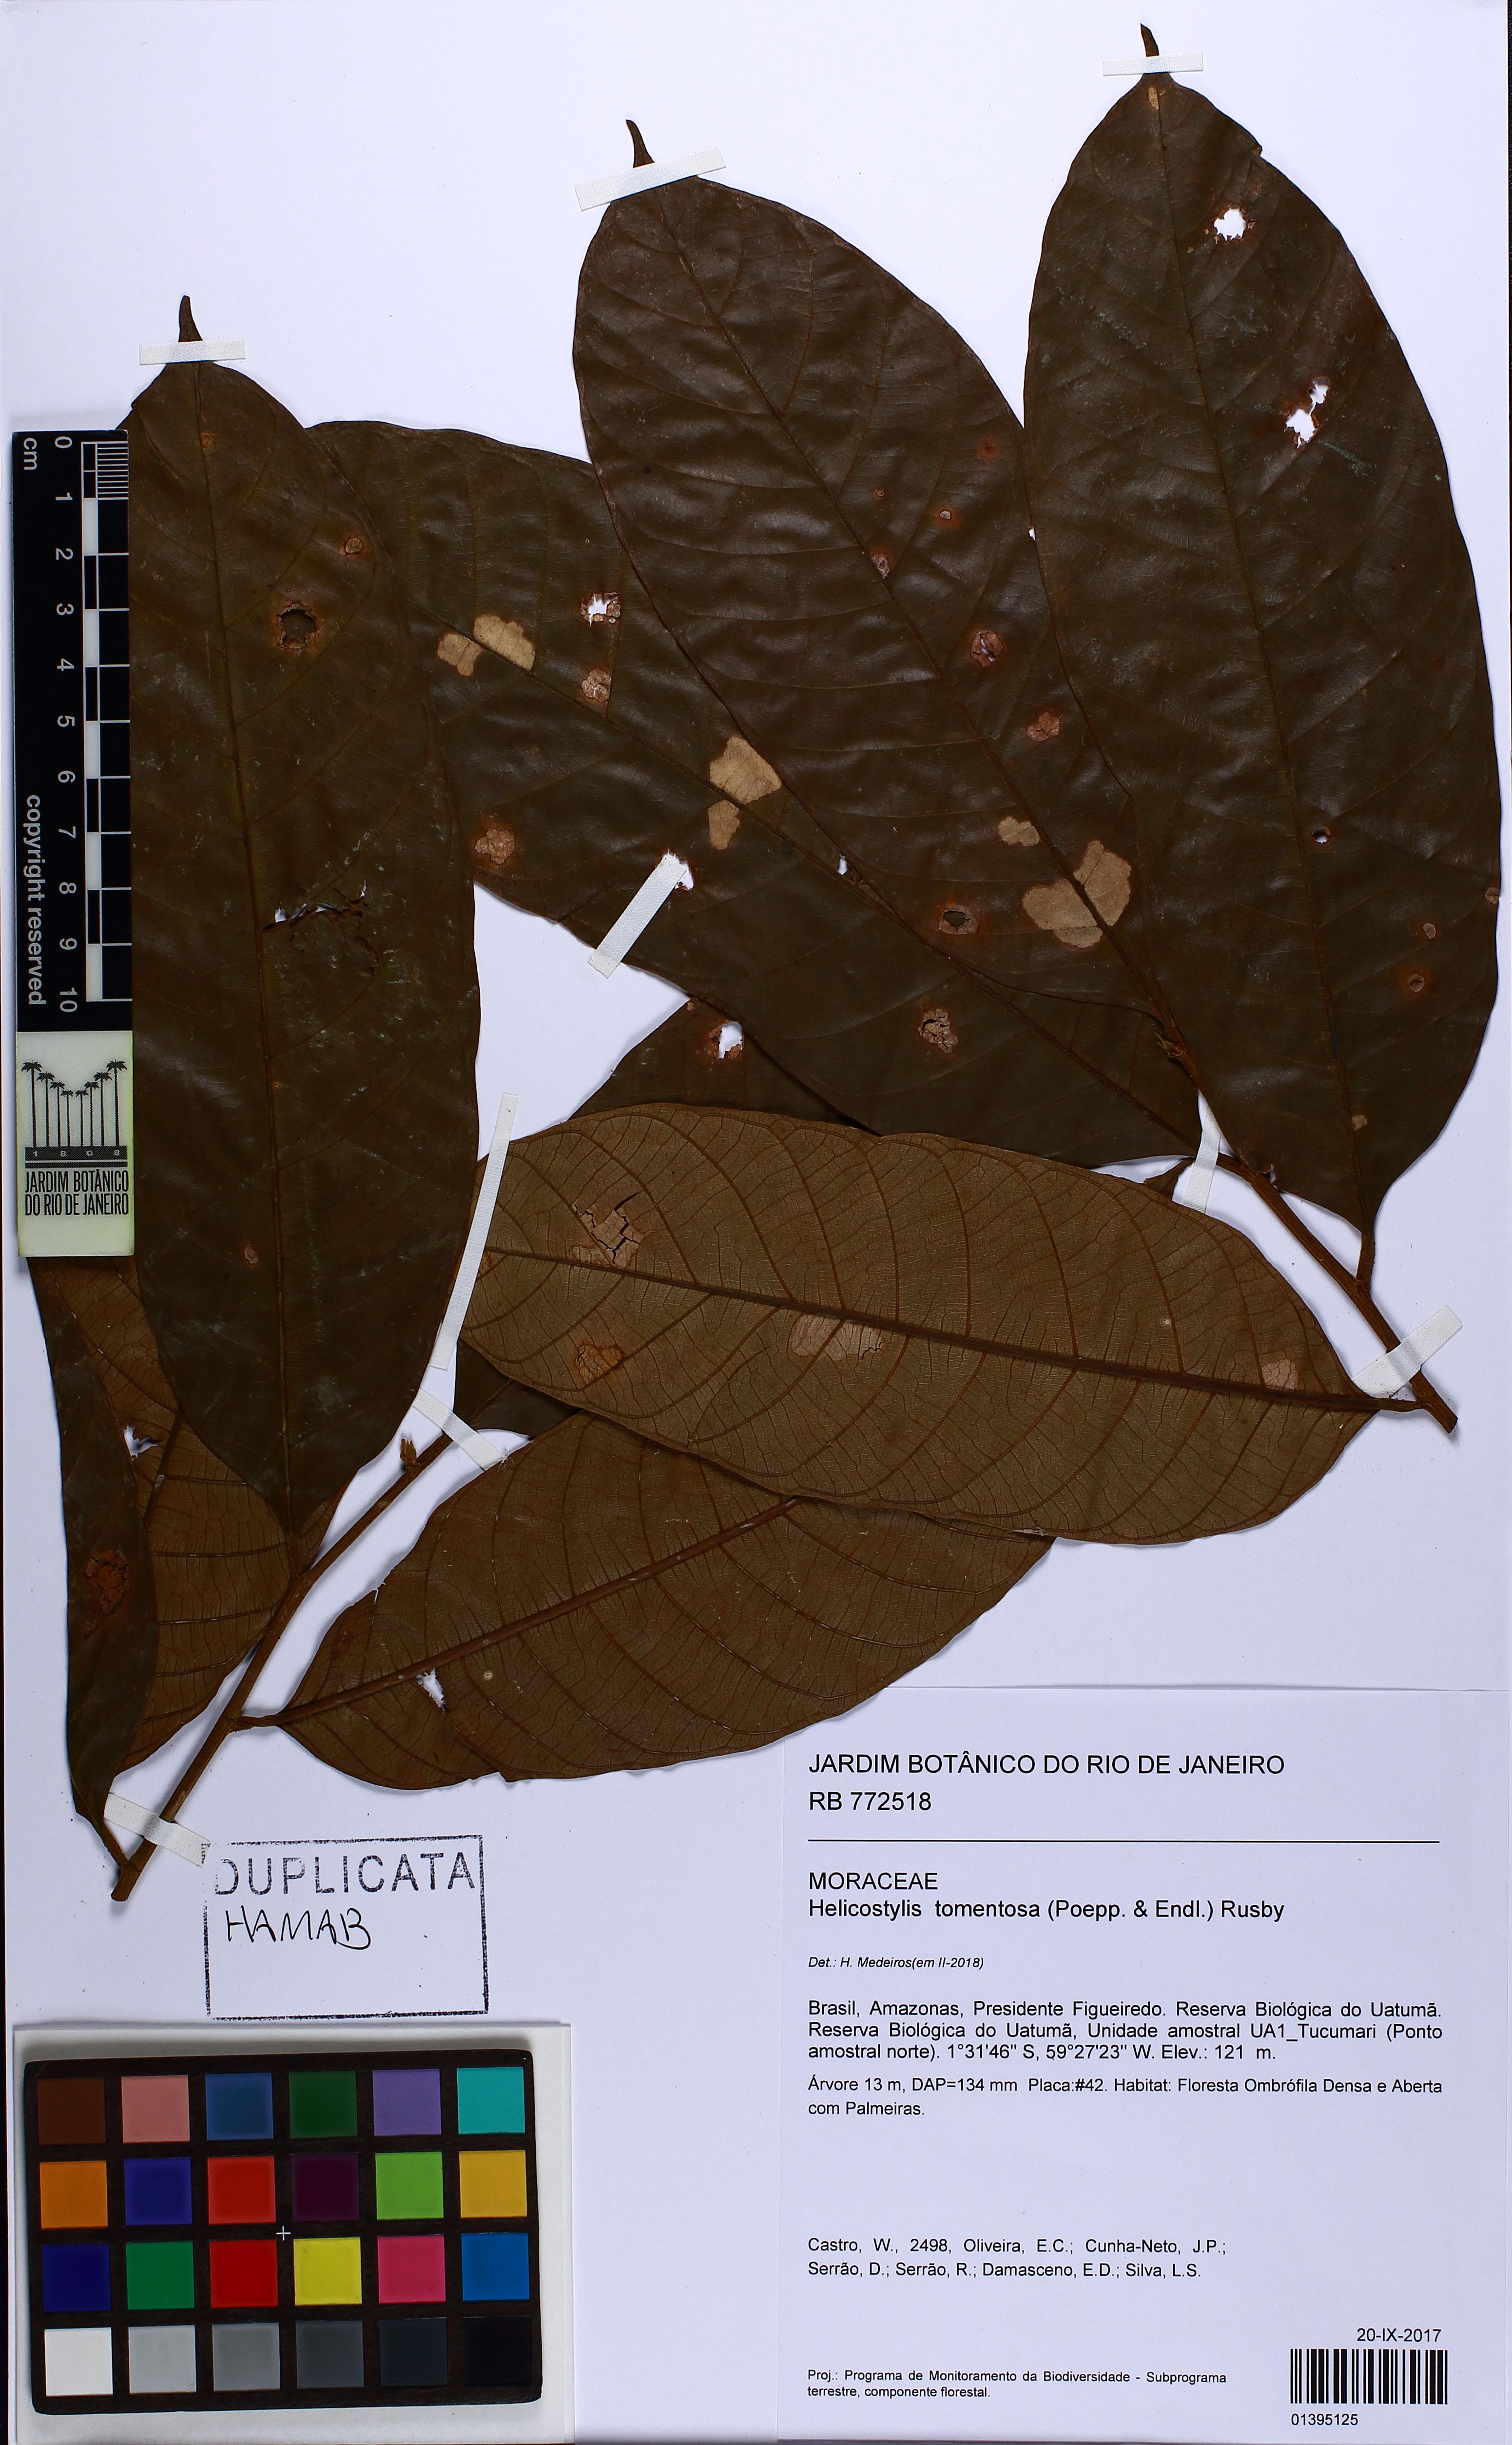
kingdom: Plantae
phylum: Tracheophyta
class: Magnoliopsida
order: Rosales
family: Moraceae
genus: Helicostylis
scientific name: Helicostylis tomentosa
